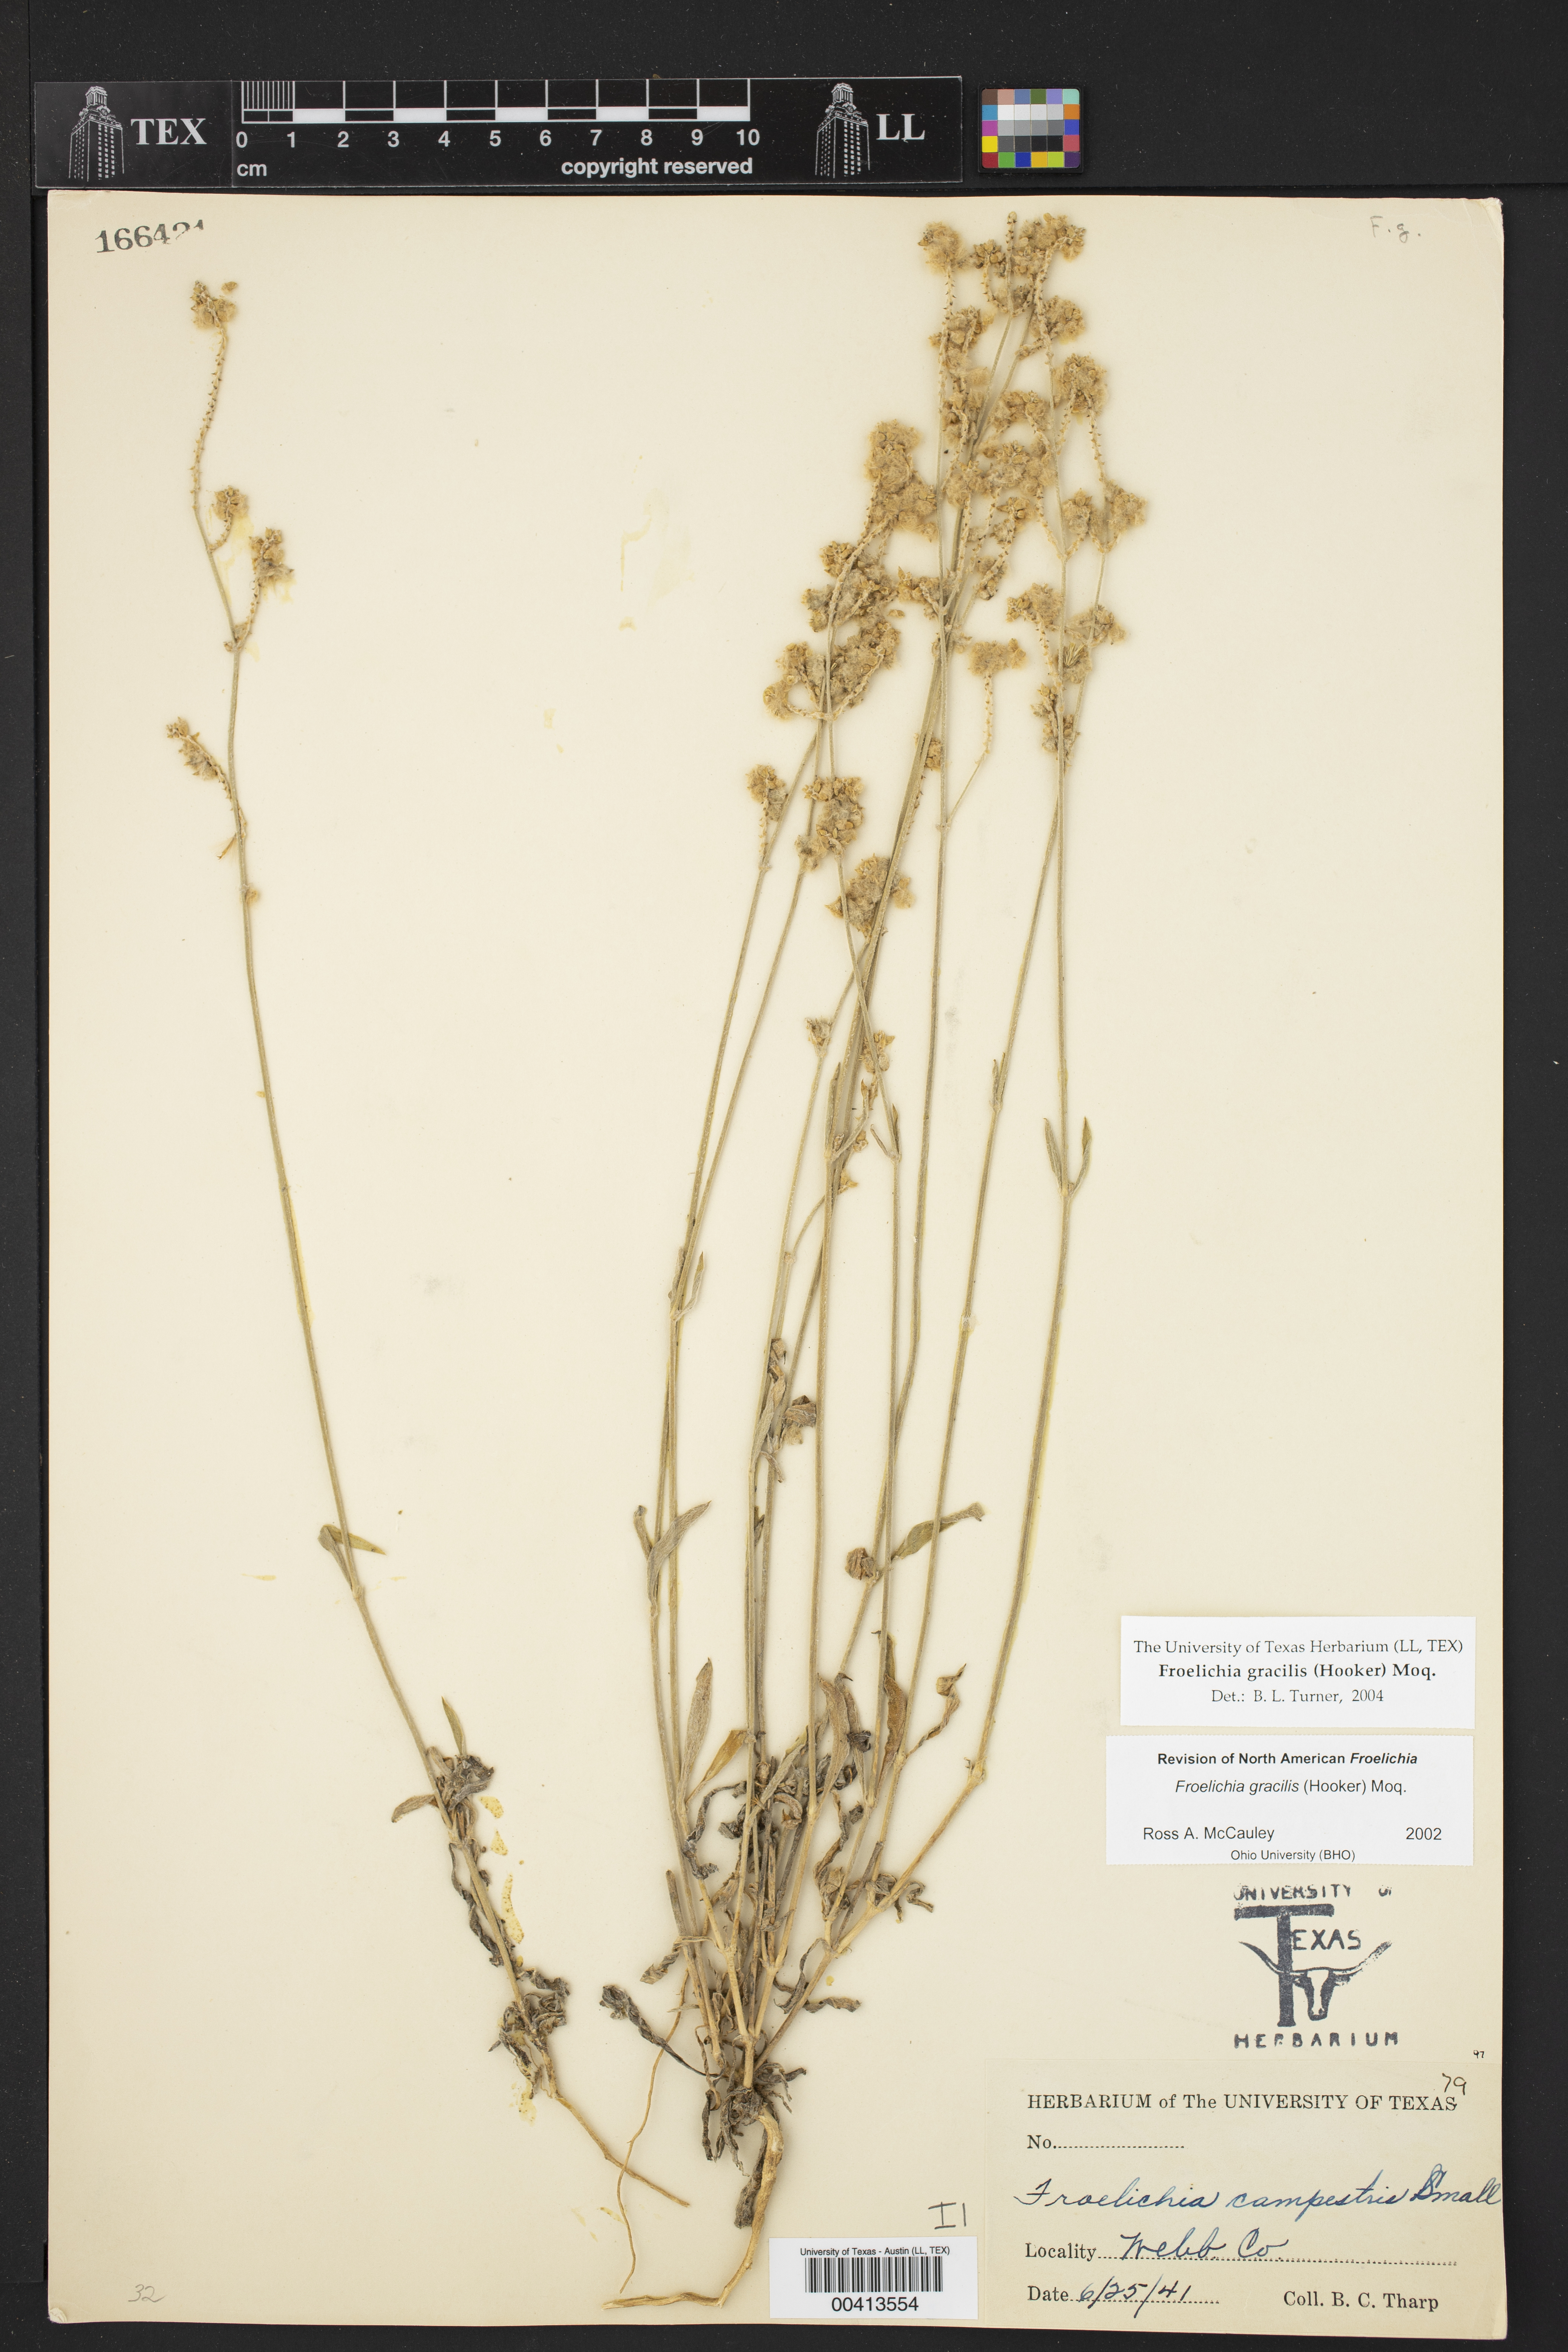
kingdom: Plantae
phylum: Tracheophyta
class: Magnoliopsida
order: Caryophyllales
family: Amaranthaceae
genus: Froelichia
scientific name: Froelichia gracilis
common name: Slender cottonweed
